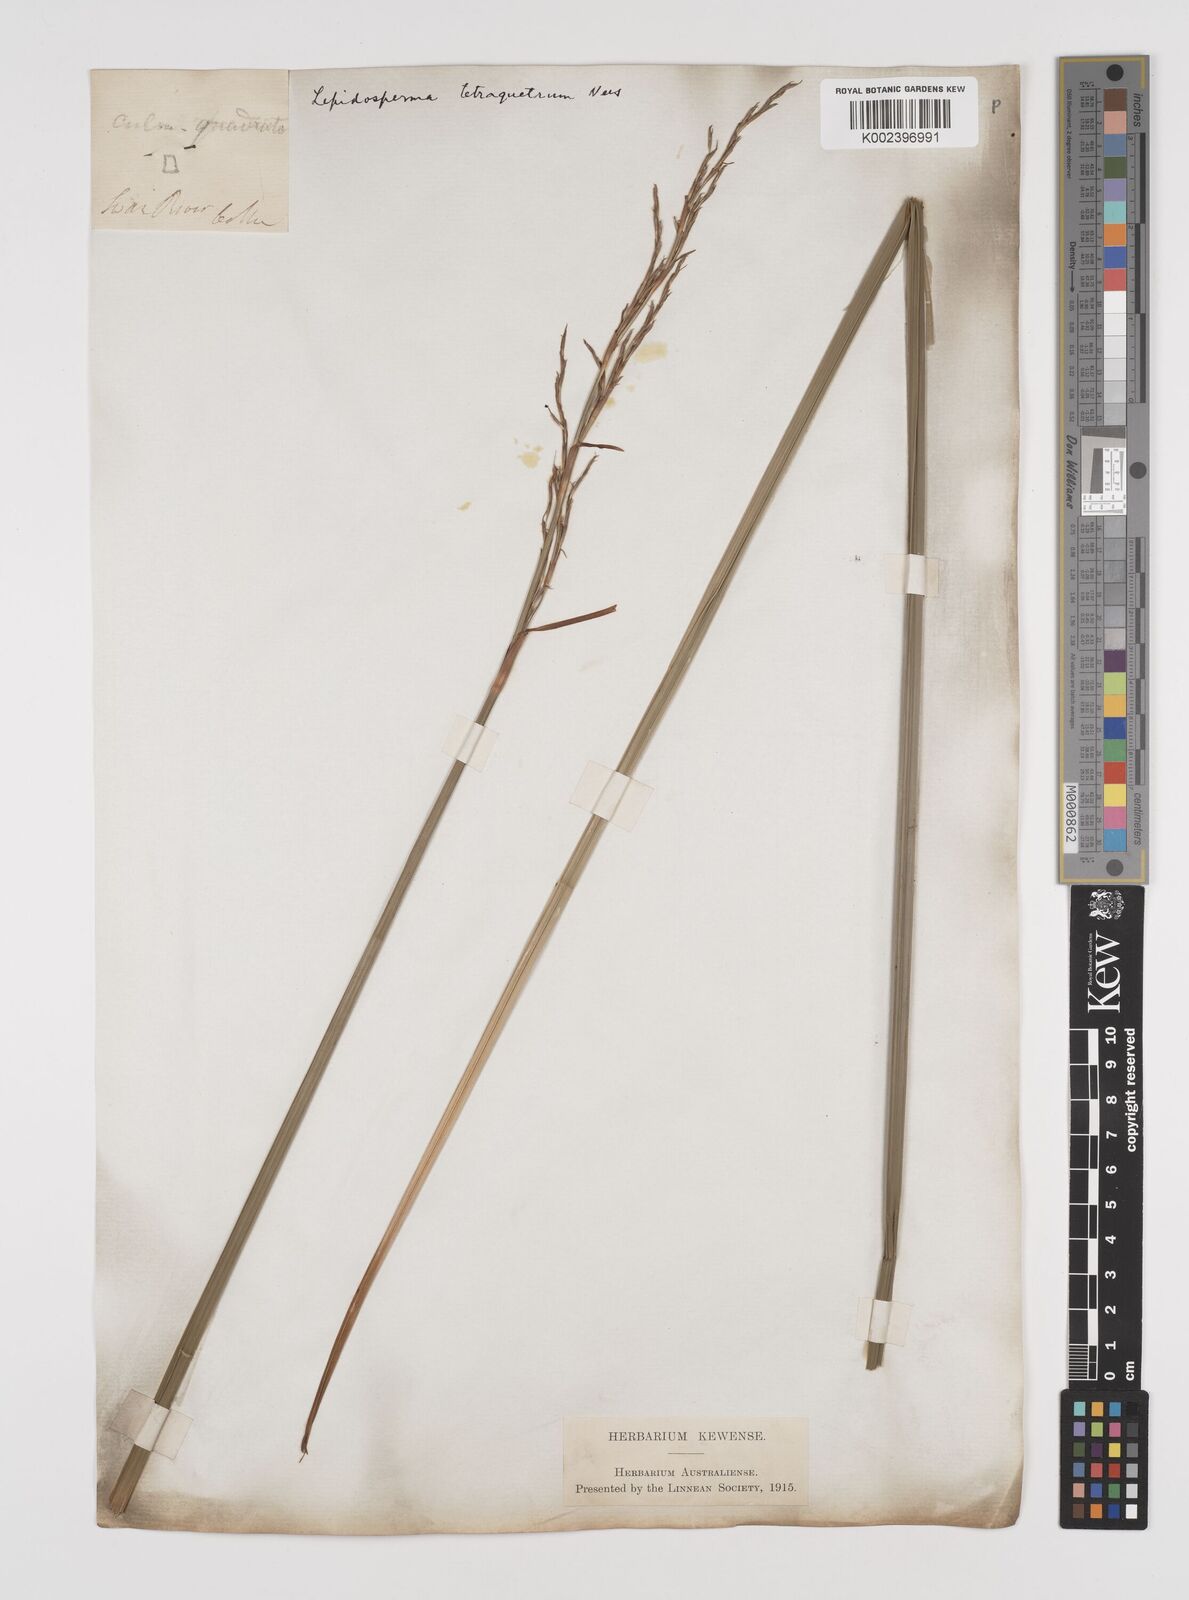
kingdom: Plantae
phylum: Tracheophyta
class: Liliopsida
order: Poales
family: Cyperaceae
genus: Lepidosperma
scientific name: Lepidosperma tetraquetrum
